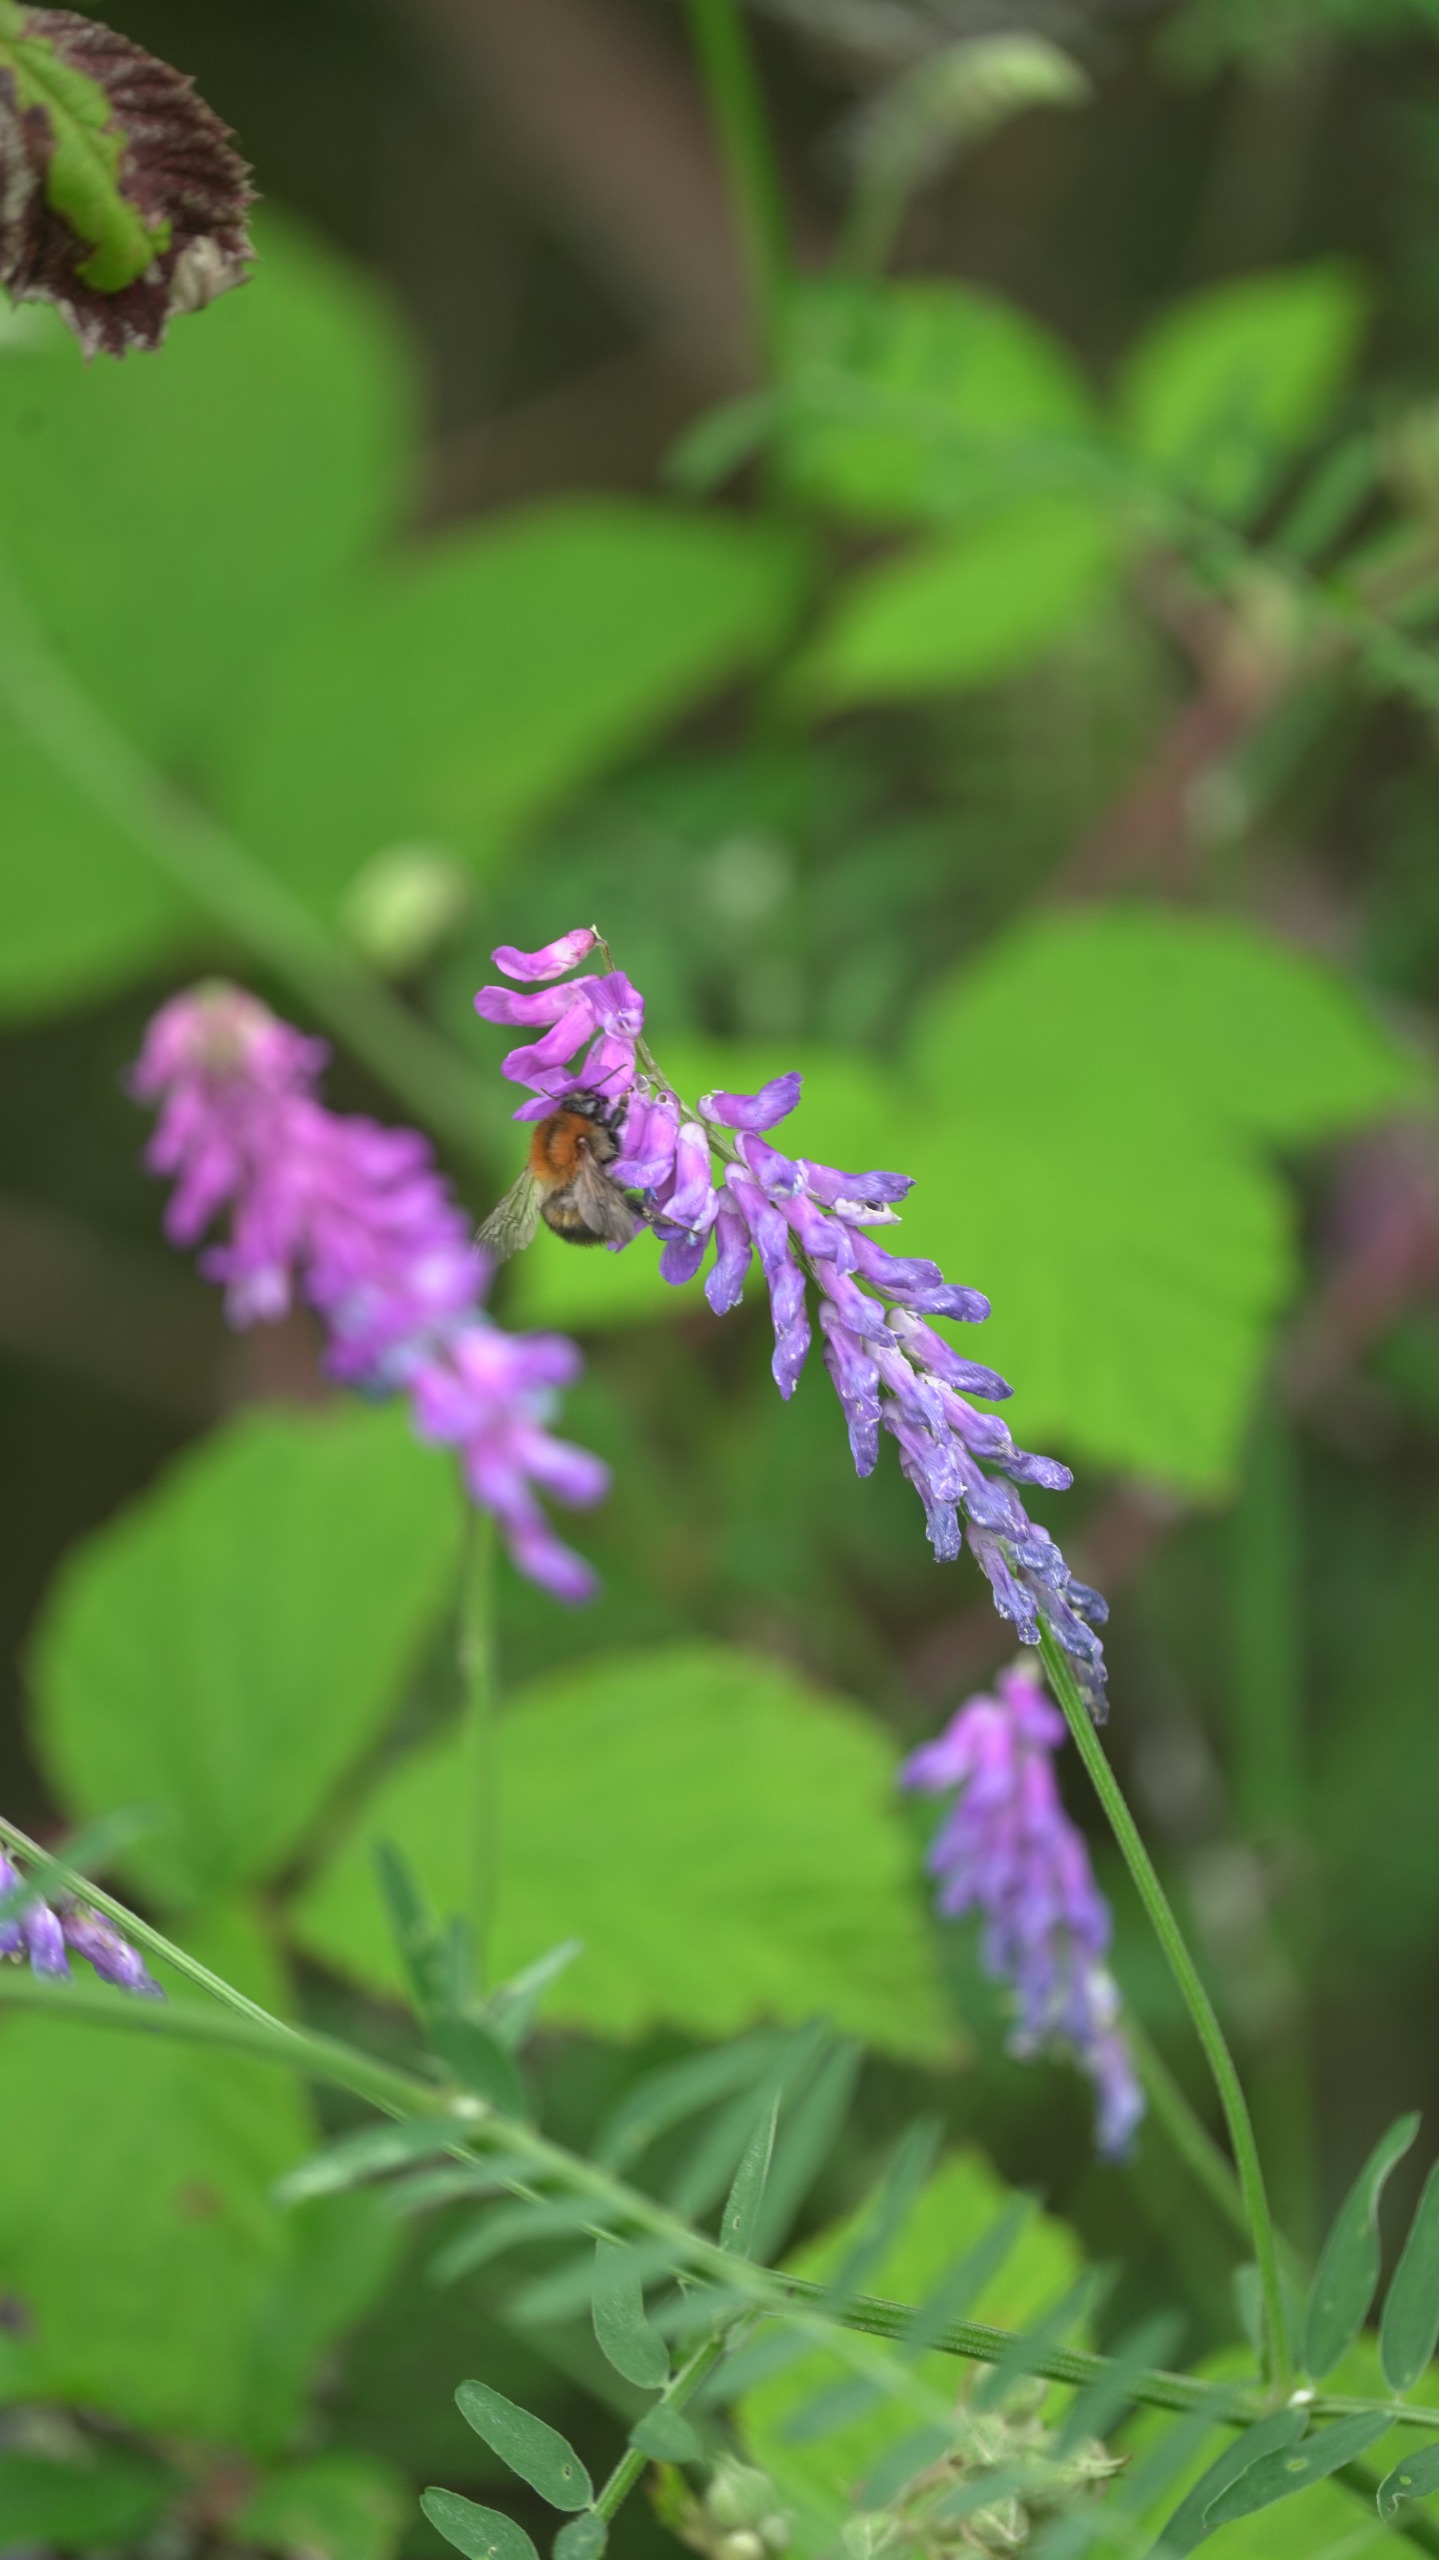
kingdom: Plantae
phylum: Tracheophyta
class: Magnoliopsida
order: Fabales
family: Fabaceae
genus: Vicia
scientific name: Vicia cracca
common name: Muse-vikke
